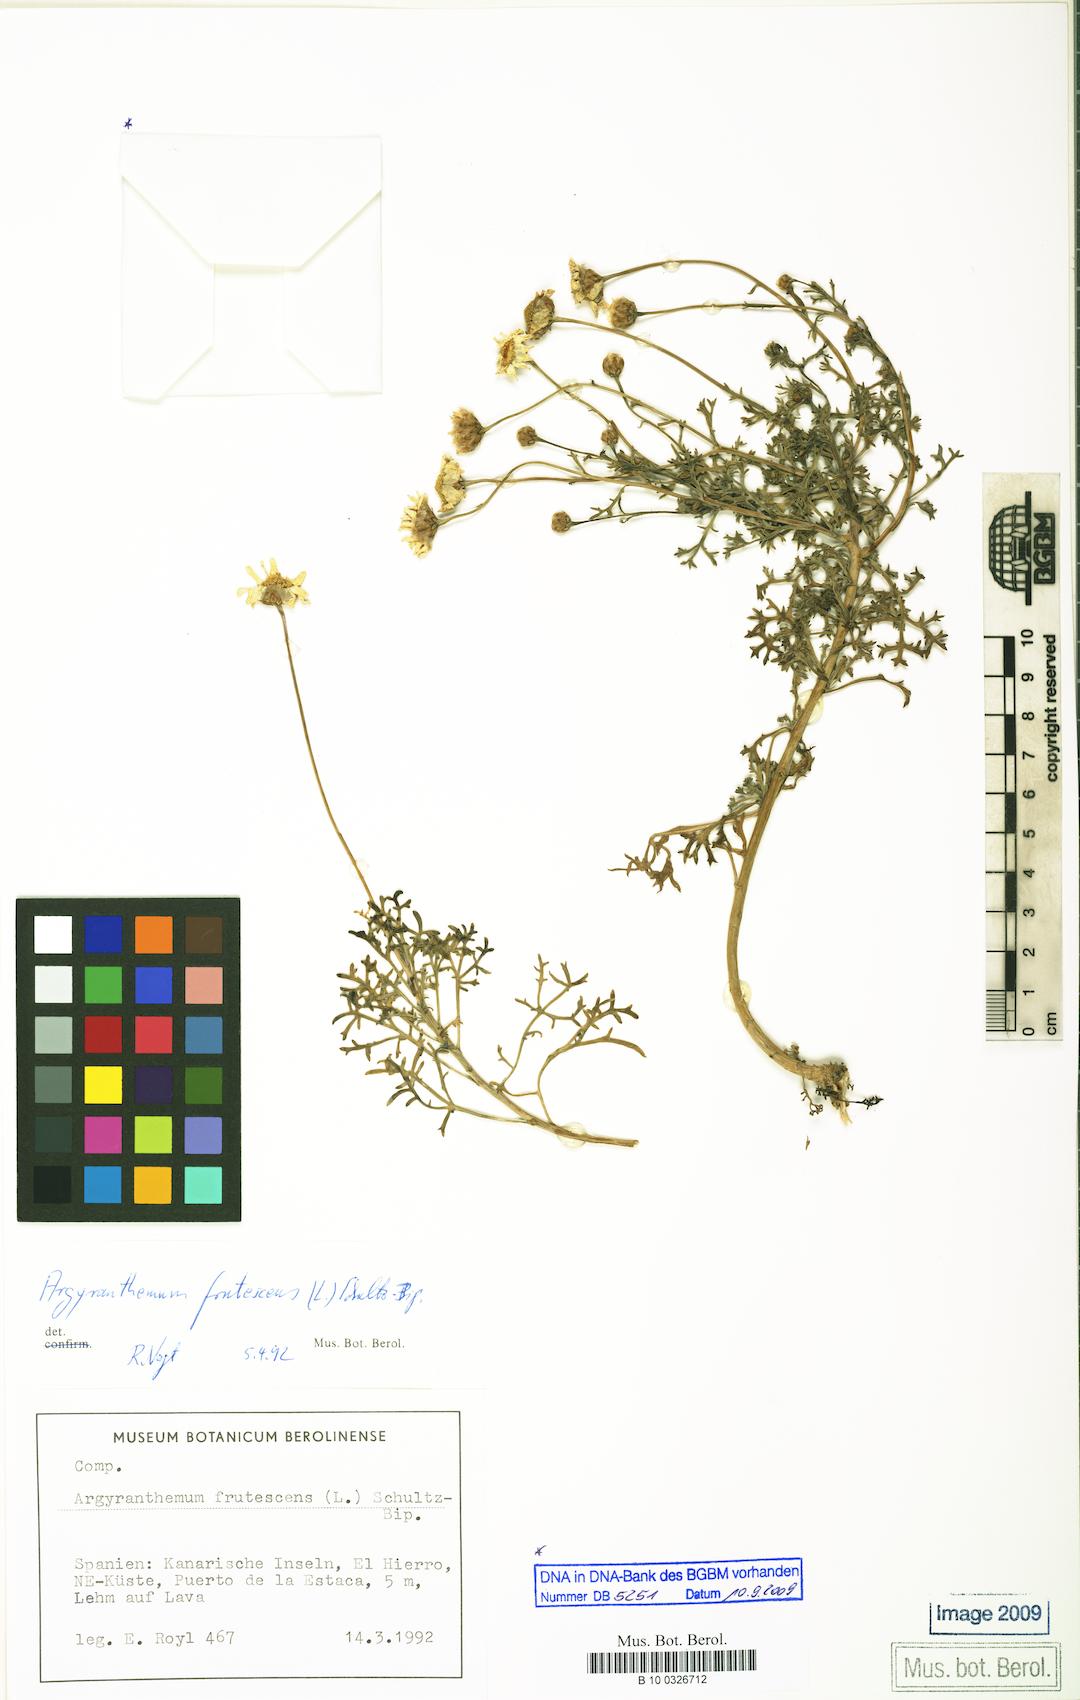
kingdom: Plantae
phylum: Tracheophyta
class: Magnoliopsida
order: Asterales
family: Asteraceae
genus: Argyranthemum
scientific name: Argyranthemum frutescens
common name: Paris daisy
